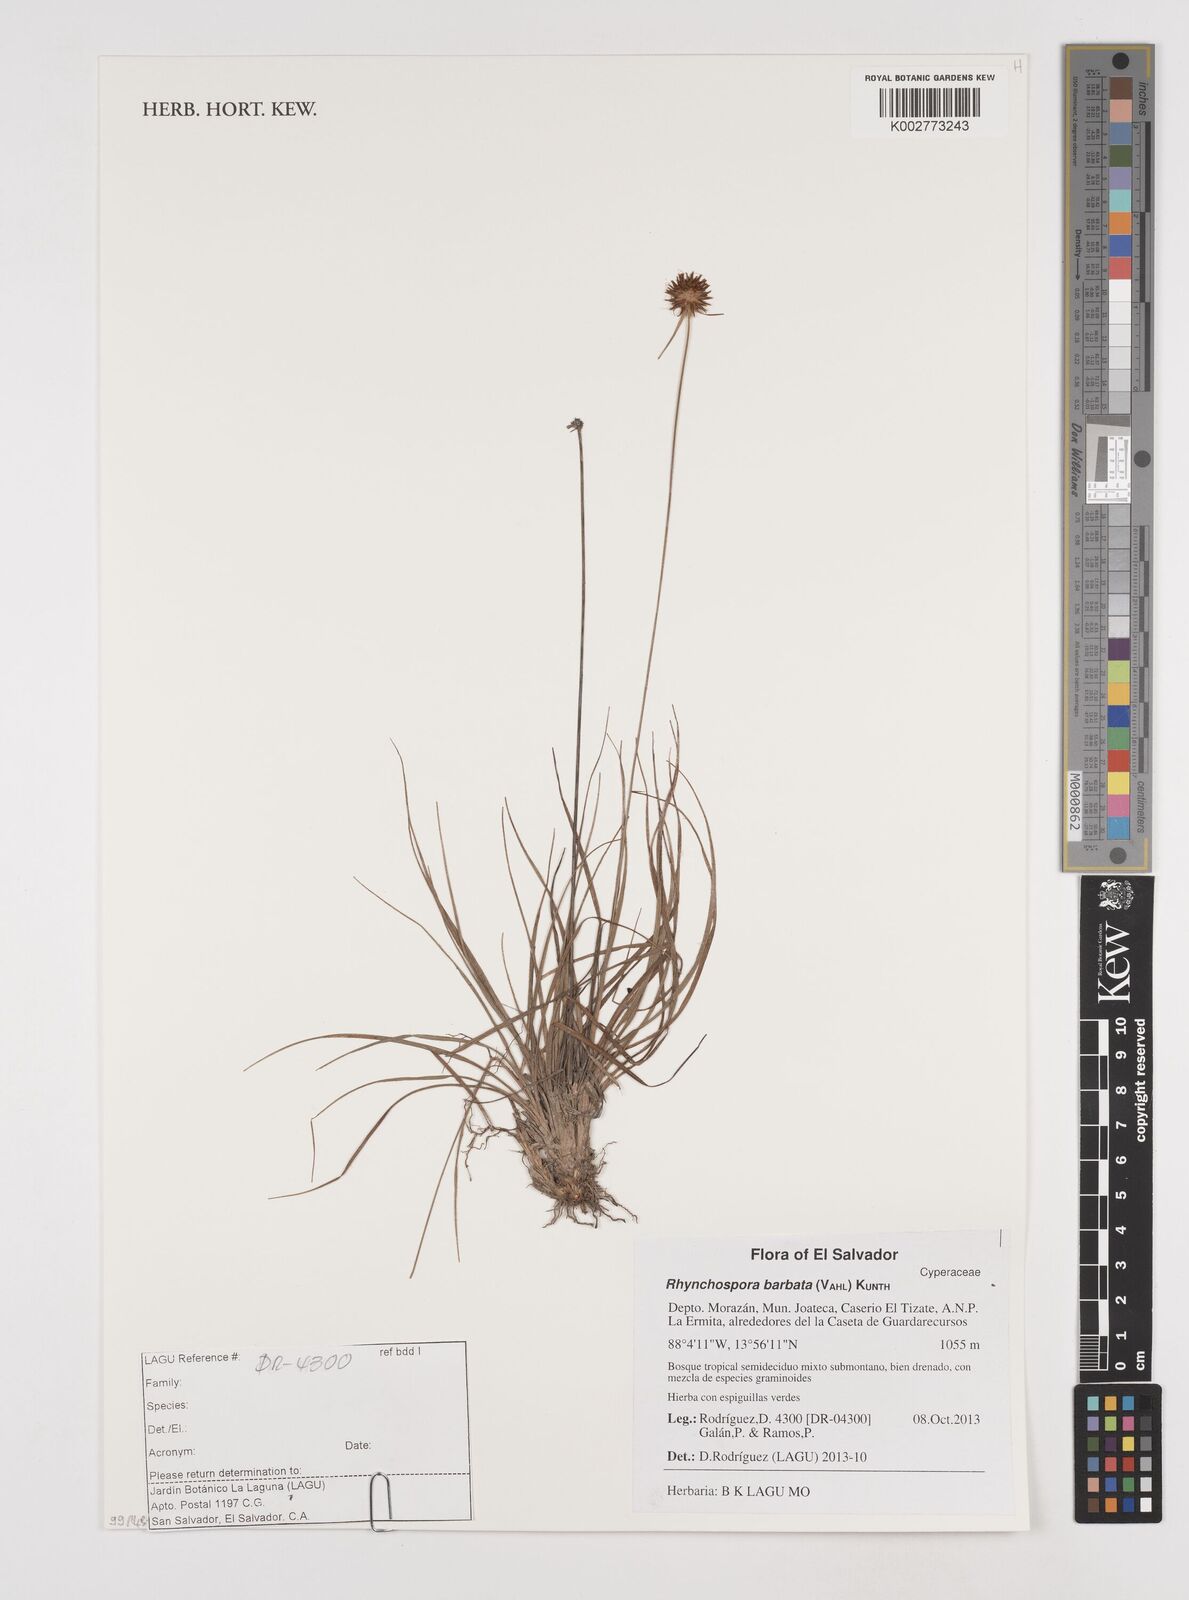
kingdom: Plantae
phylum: Tracheophyta
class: Liliopsida
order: Poales
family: Cyperaceae
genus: Rhynchospora
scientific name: Rhynchospora barbata
